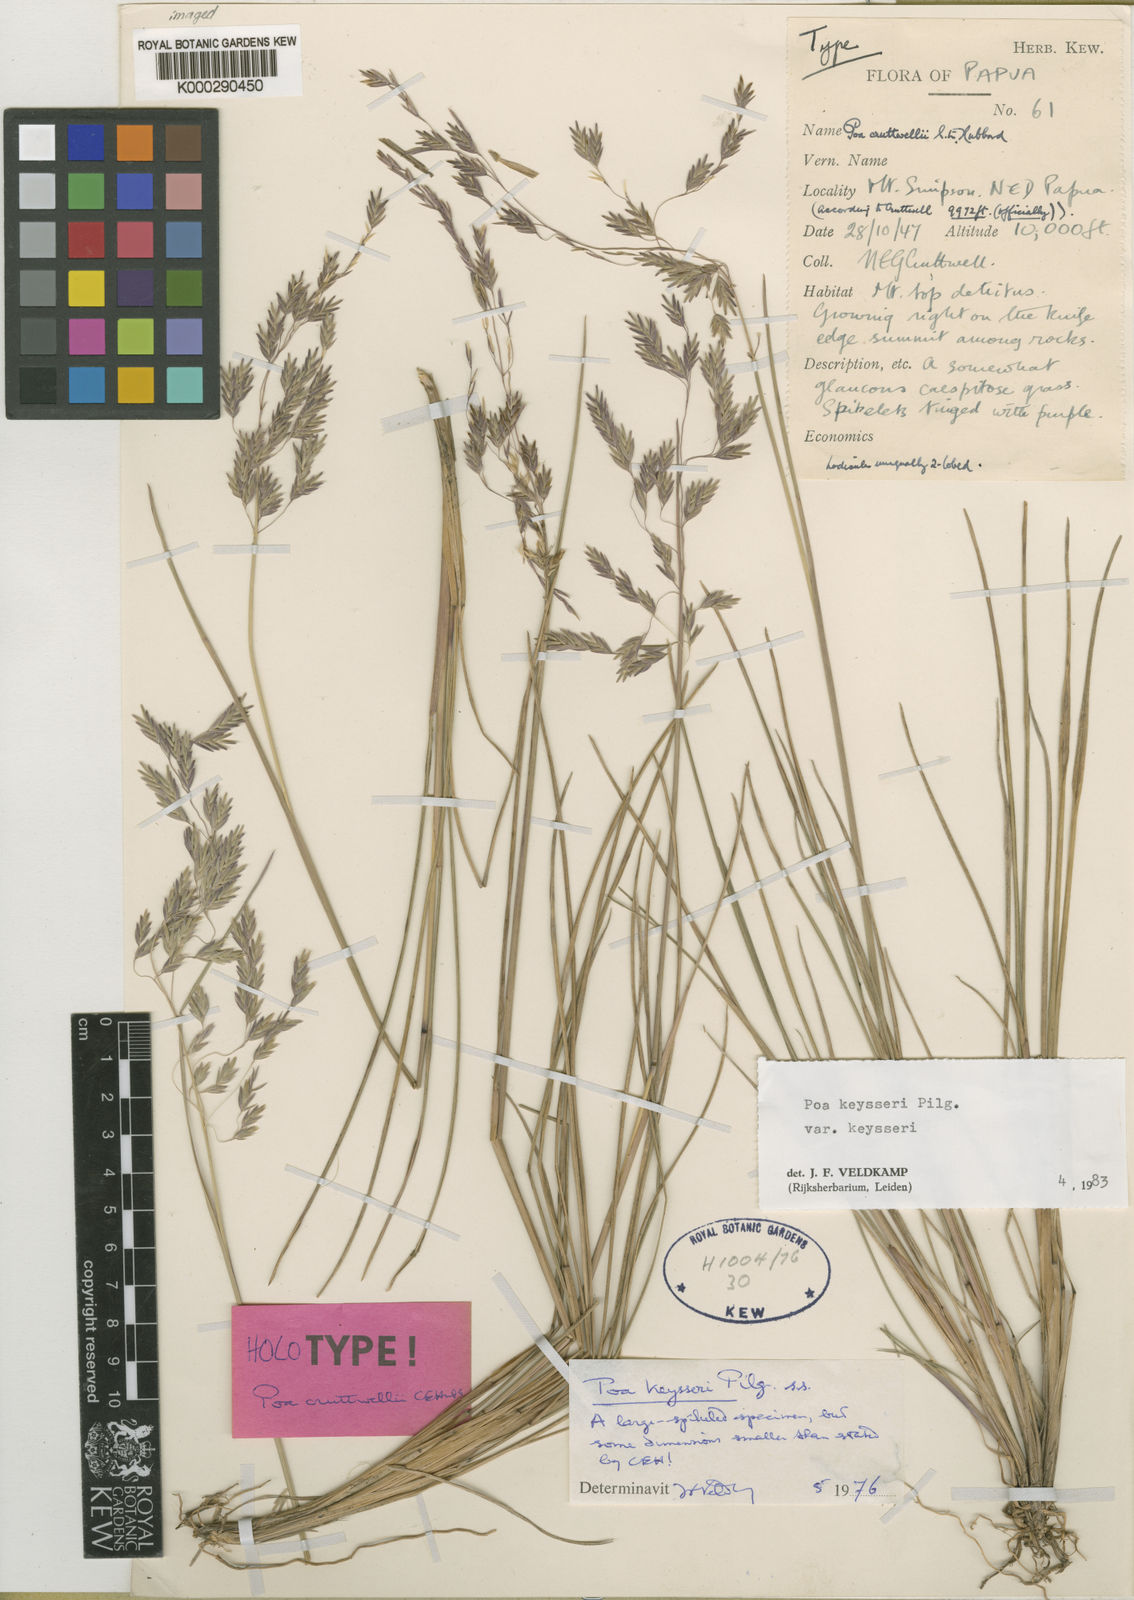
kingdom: Plantae
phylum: Tracheophyta
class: Liliopsida
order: Poales
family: Poaceae
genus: Poa
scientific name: Poa keysseri
